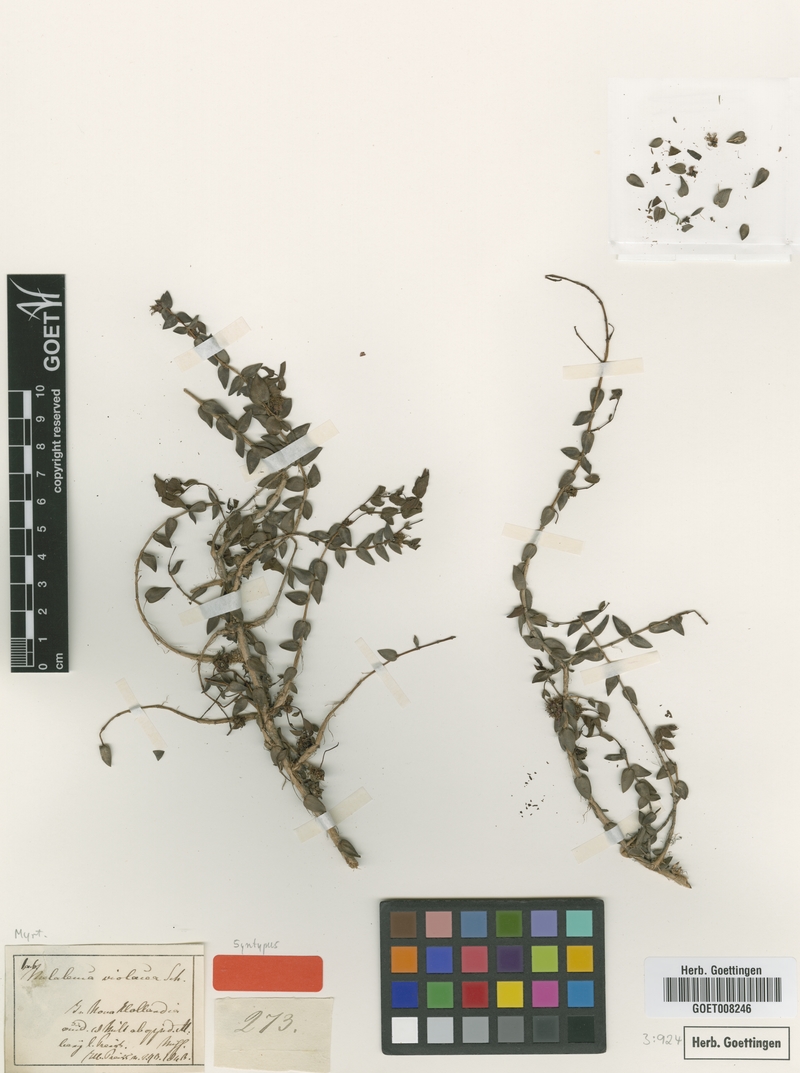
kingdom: Plantae
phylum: Tracheophyta
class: Magnoliopsida
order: Myrtales
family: Myrtaceae
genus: Melaleuca
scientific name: Melaleuca violacea
